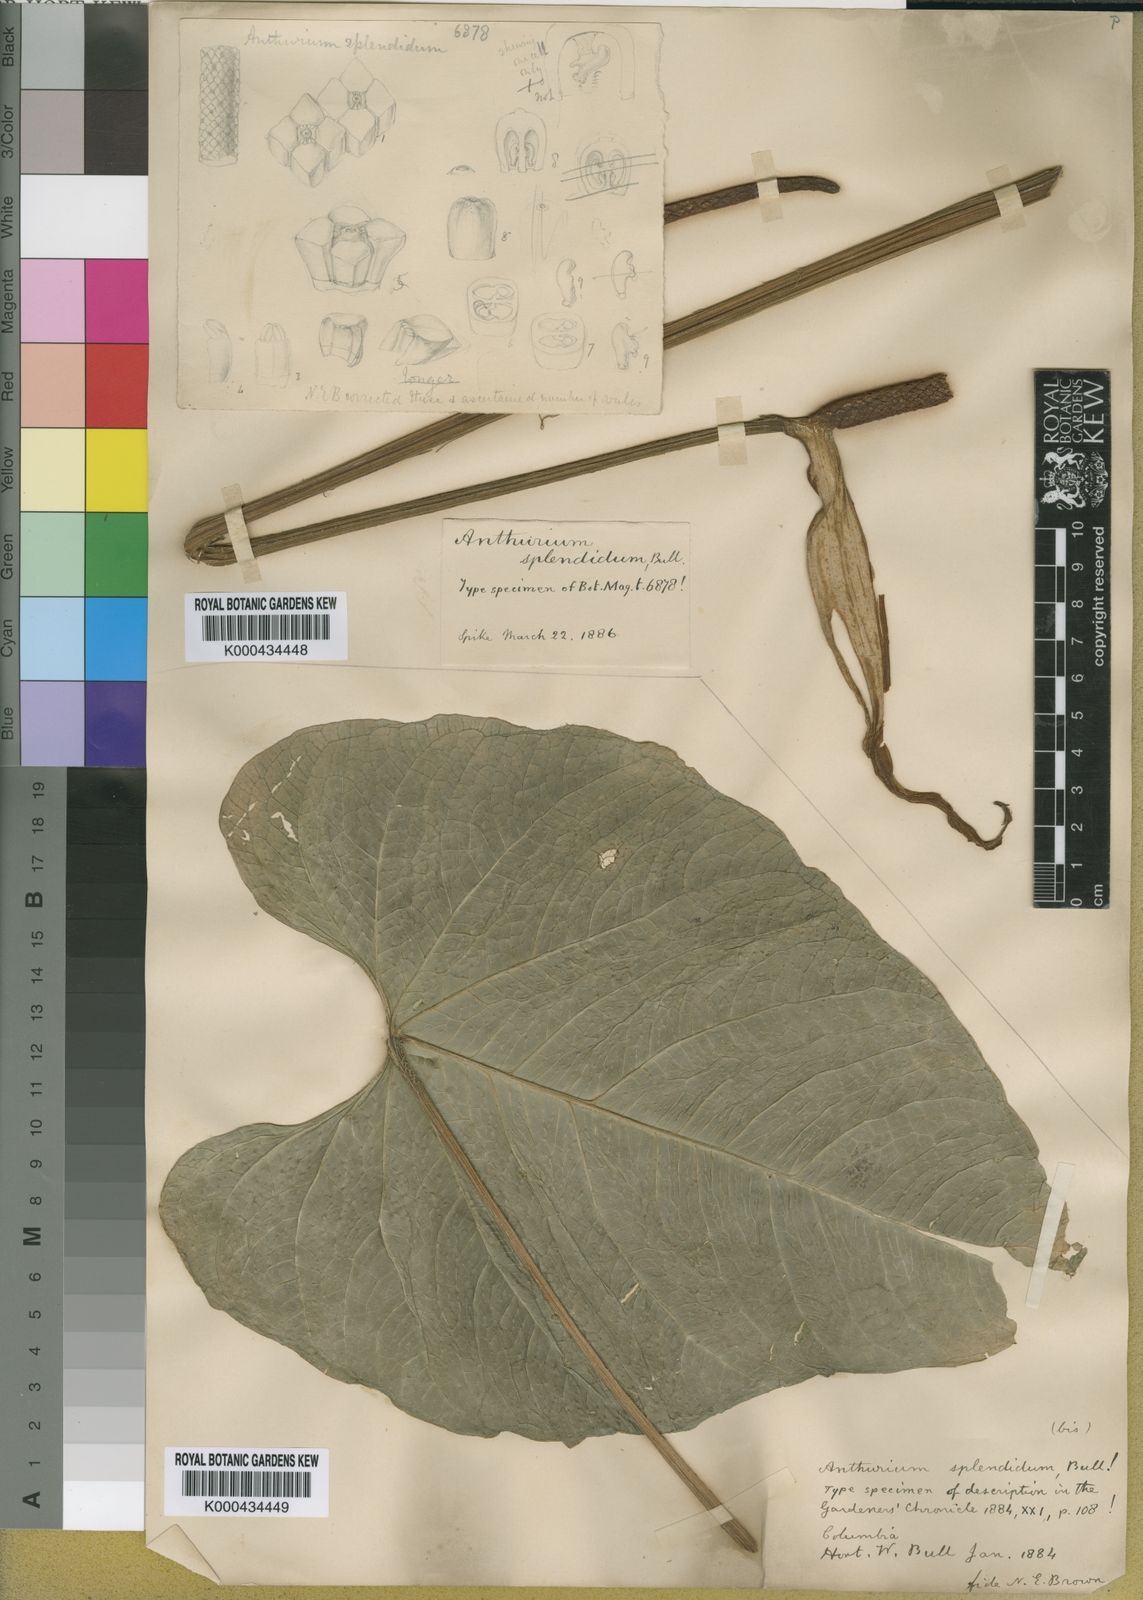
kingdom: Plantae
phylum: Tracheophyta
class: Liliopsida
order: Alismatales
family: Araceae
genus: Anthurium
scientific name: Anthurium
